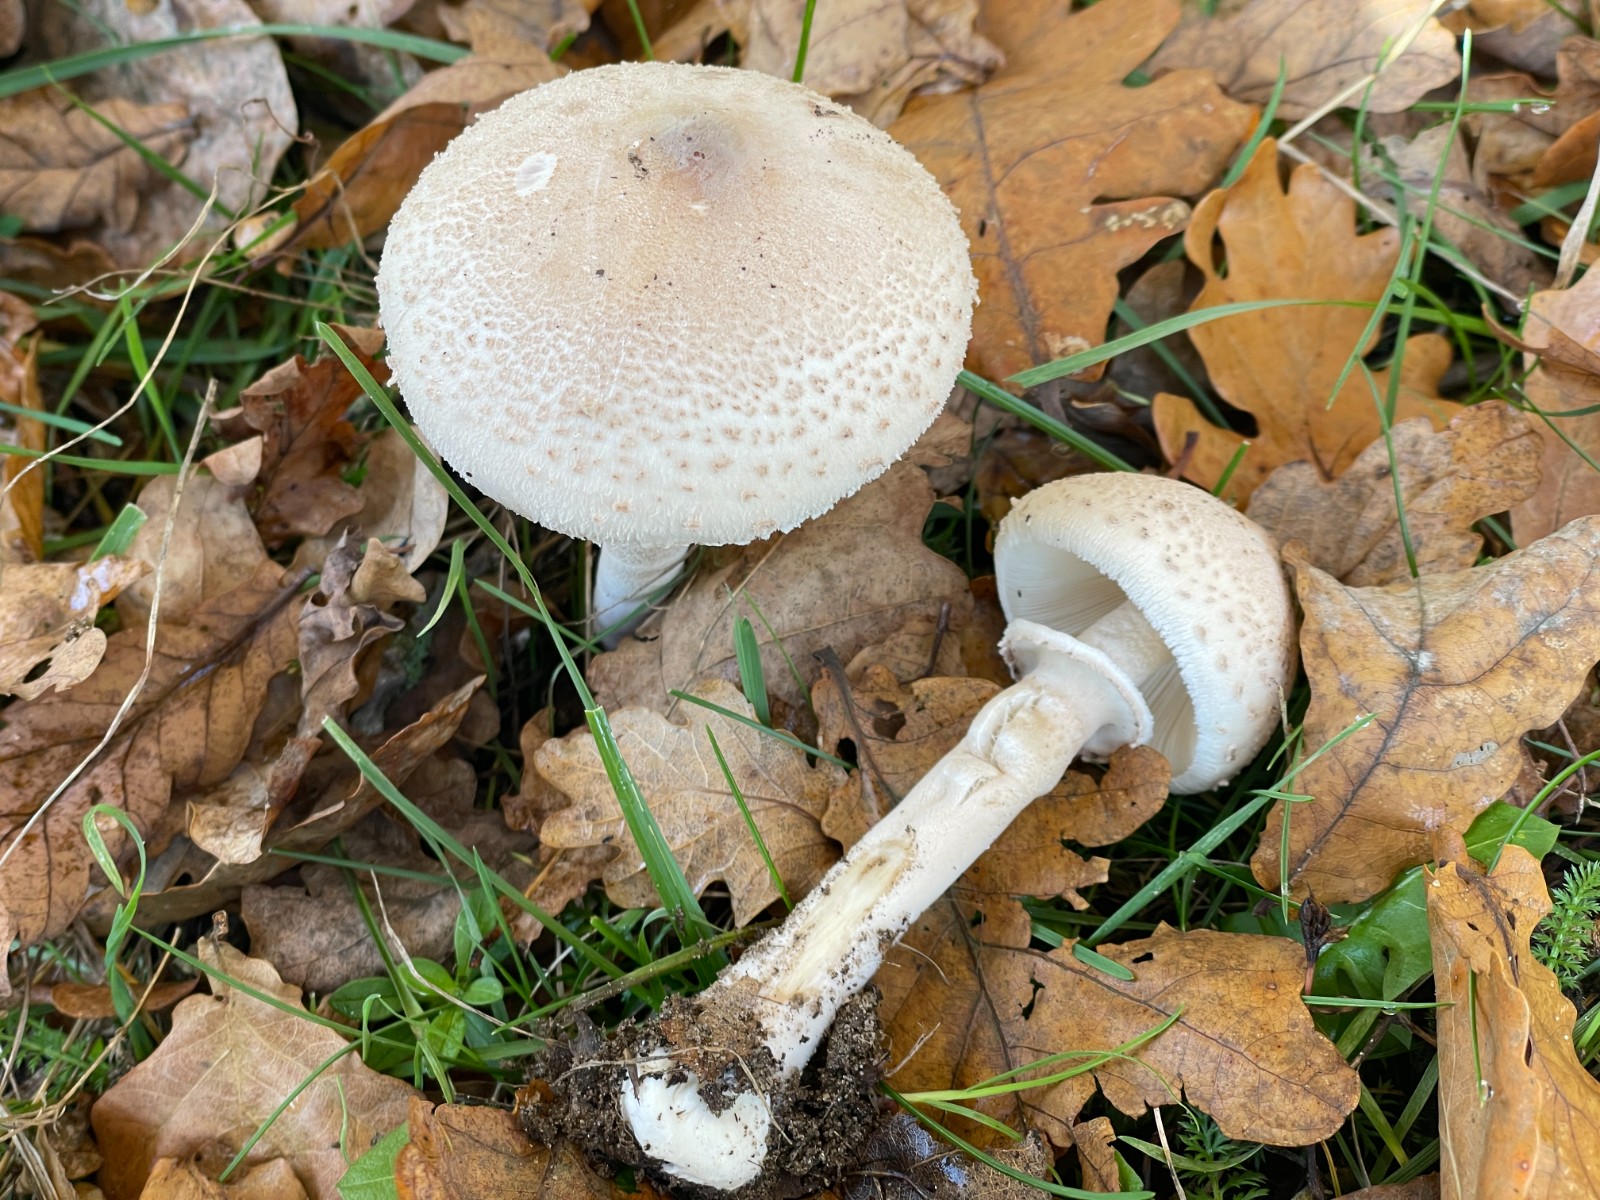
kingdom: Fungi
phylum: Basidiomycota
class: Agaricomycetes
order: Agaricales
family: Agaricaceae
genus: Macrolepiota
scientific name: Macrolepiota mastoidea
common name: puklet kæmpeparasolhat
